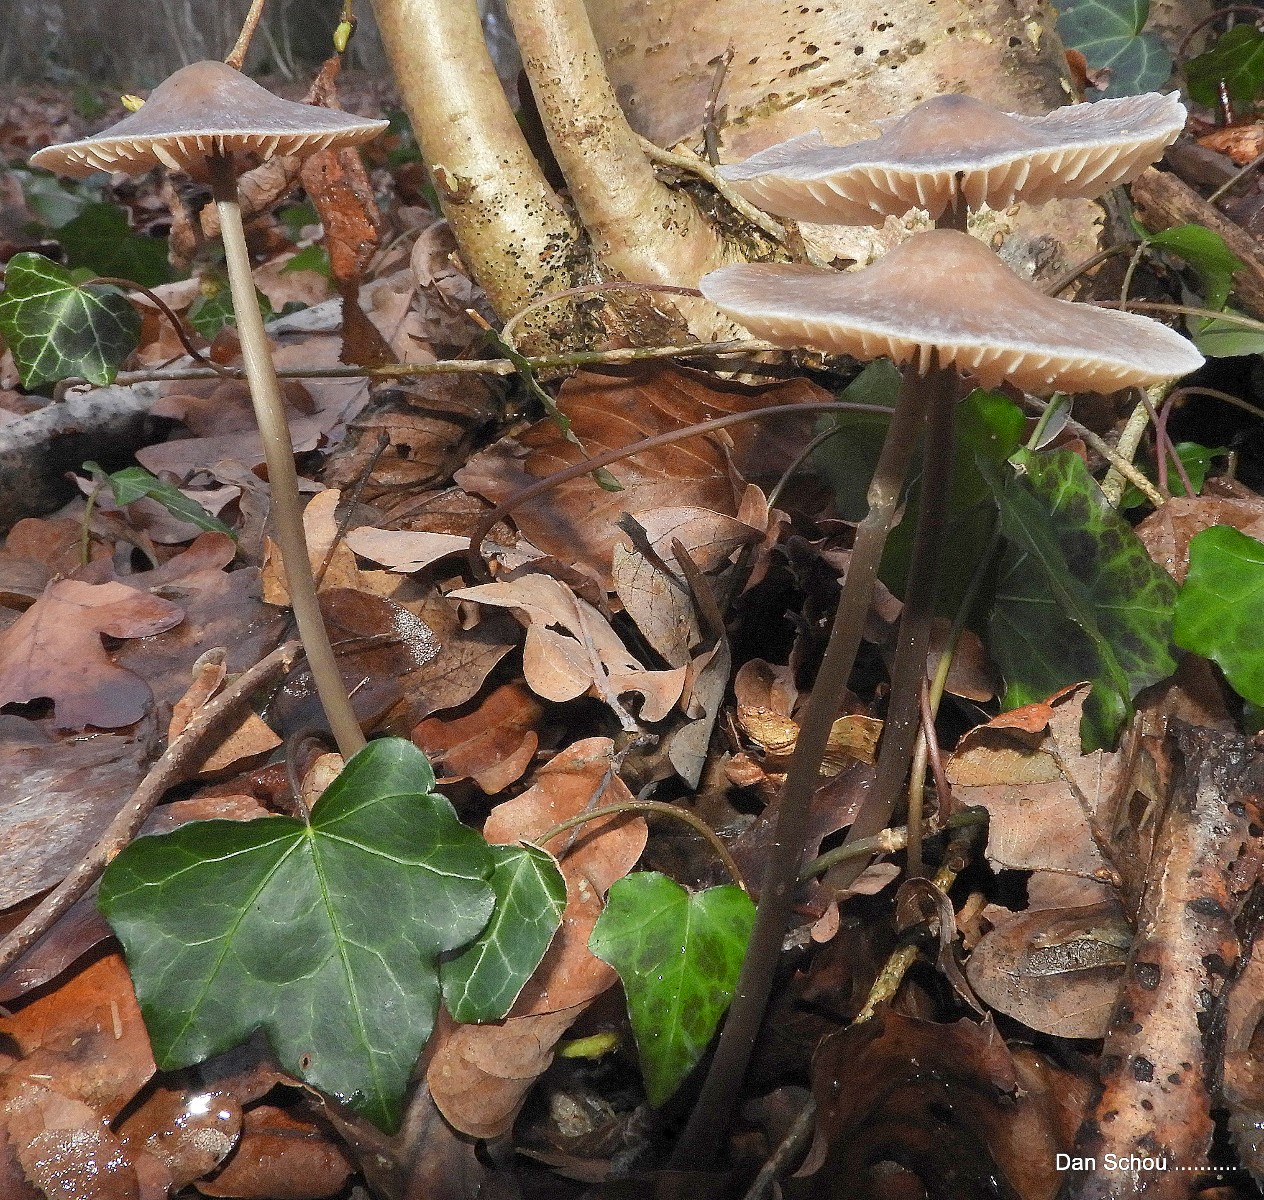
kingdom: Fungi
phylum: Basidiomycota
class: Agaricomycetes
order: Agaricales
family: Mycenaceae
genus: Mycena
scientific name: Mycena polygramma
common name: mangestribet huesvamp
